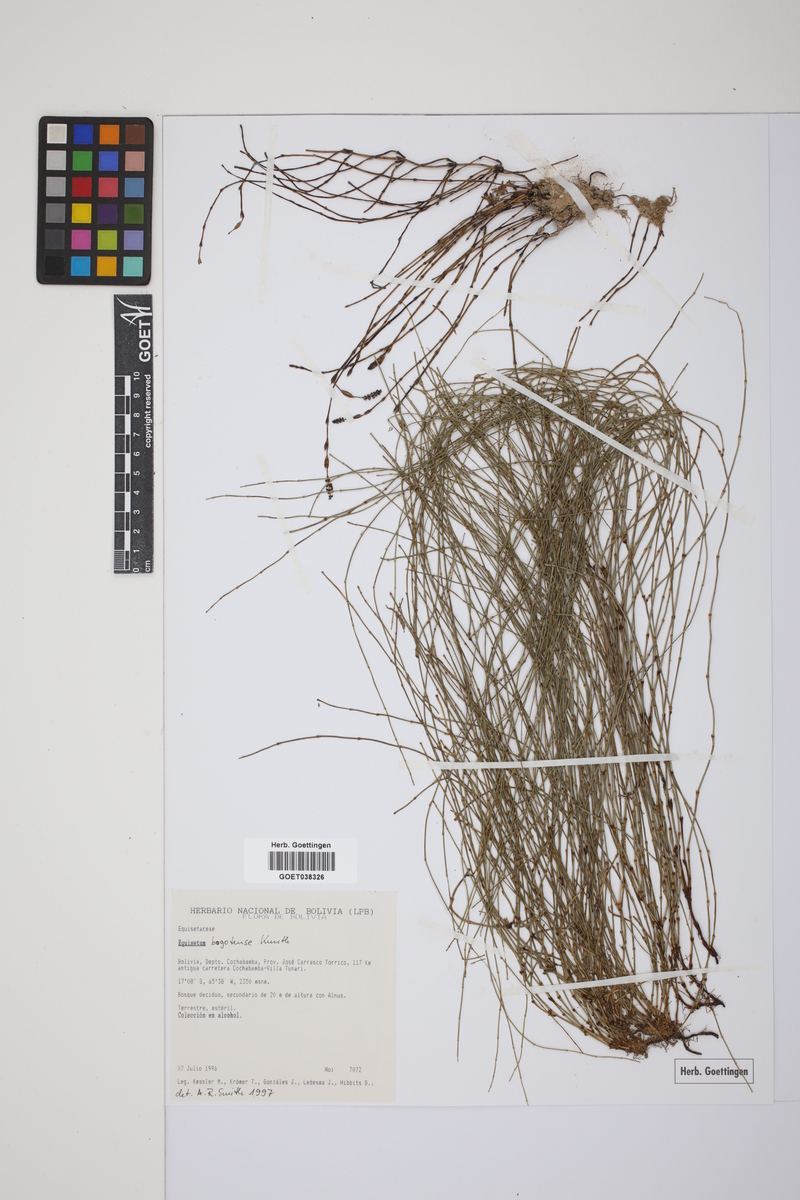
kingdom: Plantae
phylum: Tracheophyta
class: Polypodiopsida
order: Equisetales
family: Equisetaceae
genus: Equisetum
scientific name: Equisetum bogotense
